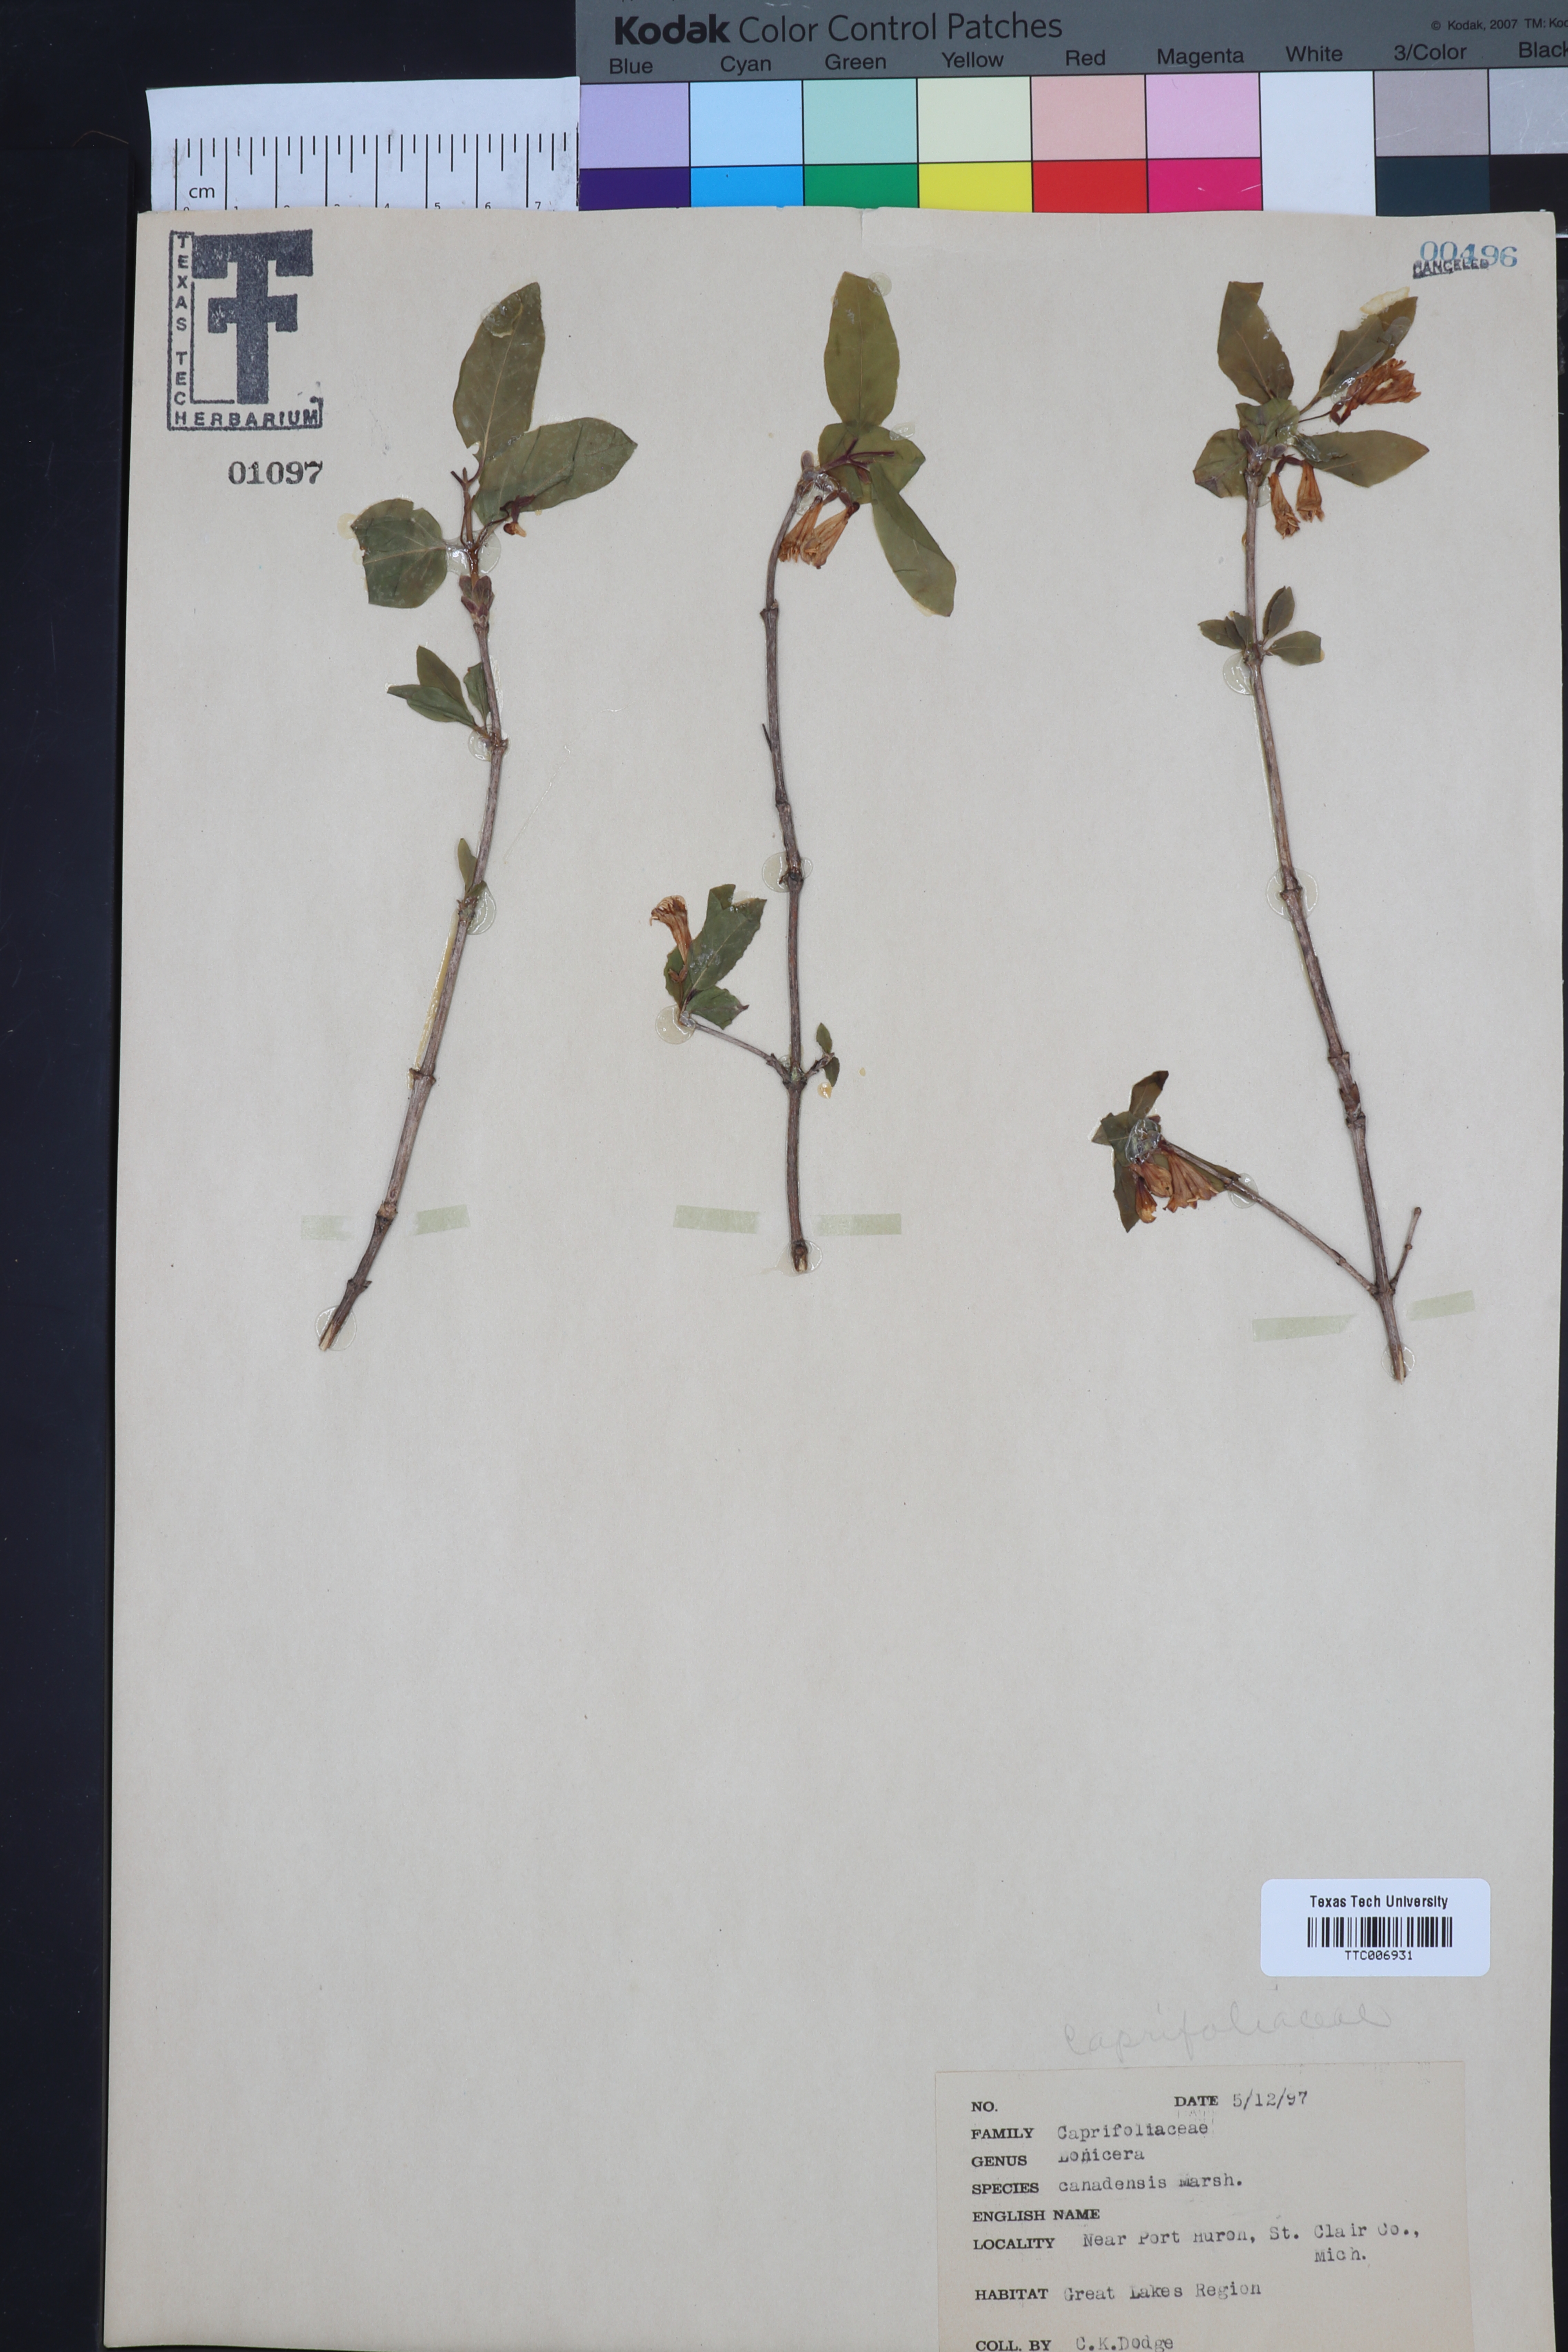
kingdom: Plantae
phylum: Tracheophyta
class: Magnoliopsida
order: Dipsacales
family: Caprifoliaceae
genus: Lonicera
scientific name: Lonicera canadensis
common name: American fly-honeysuckle
